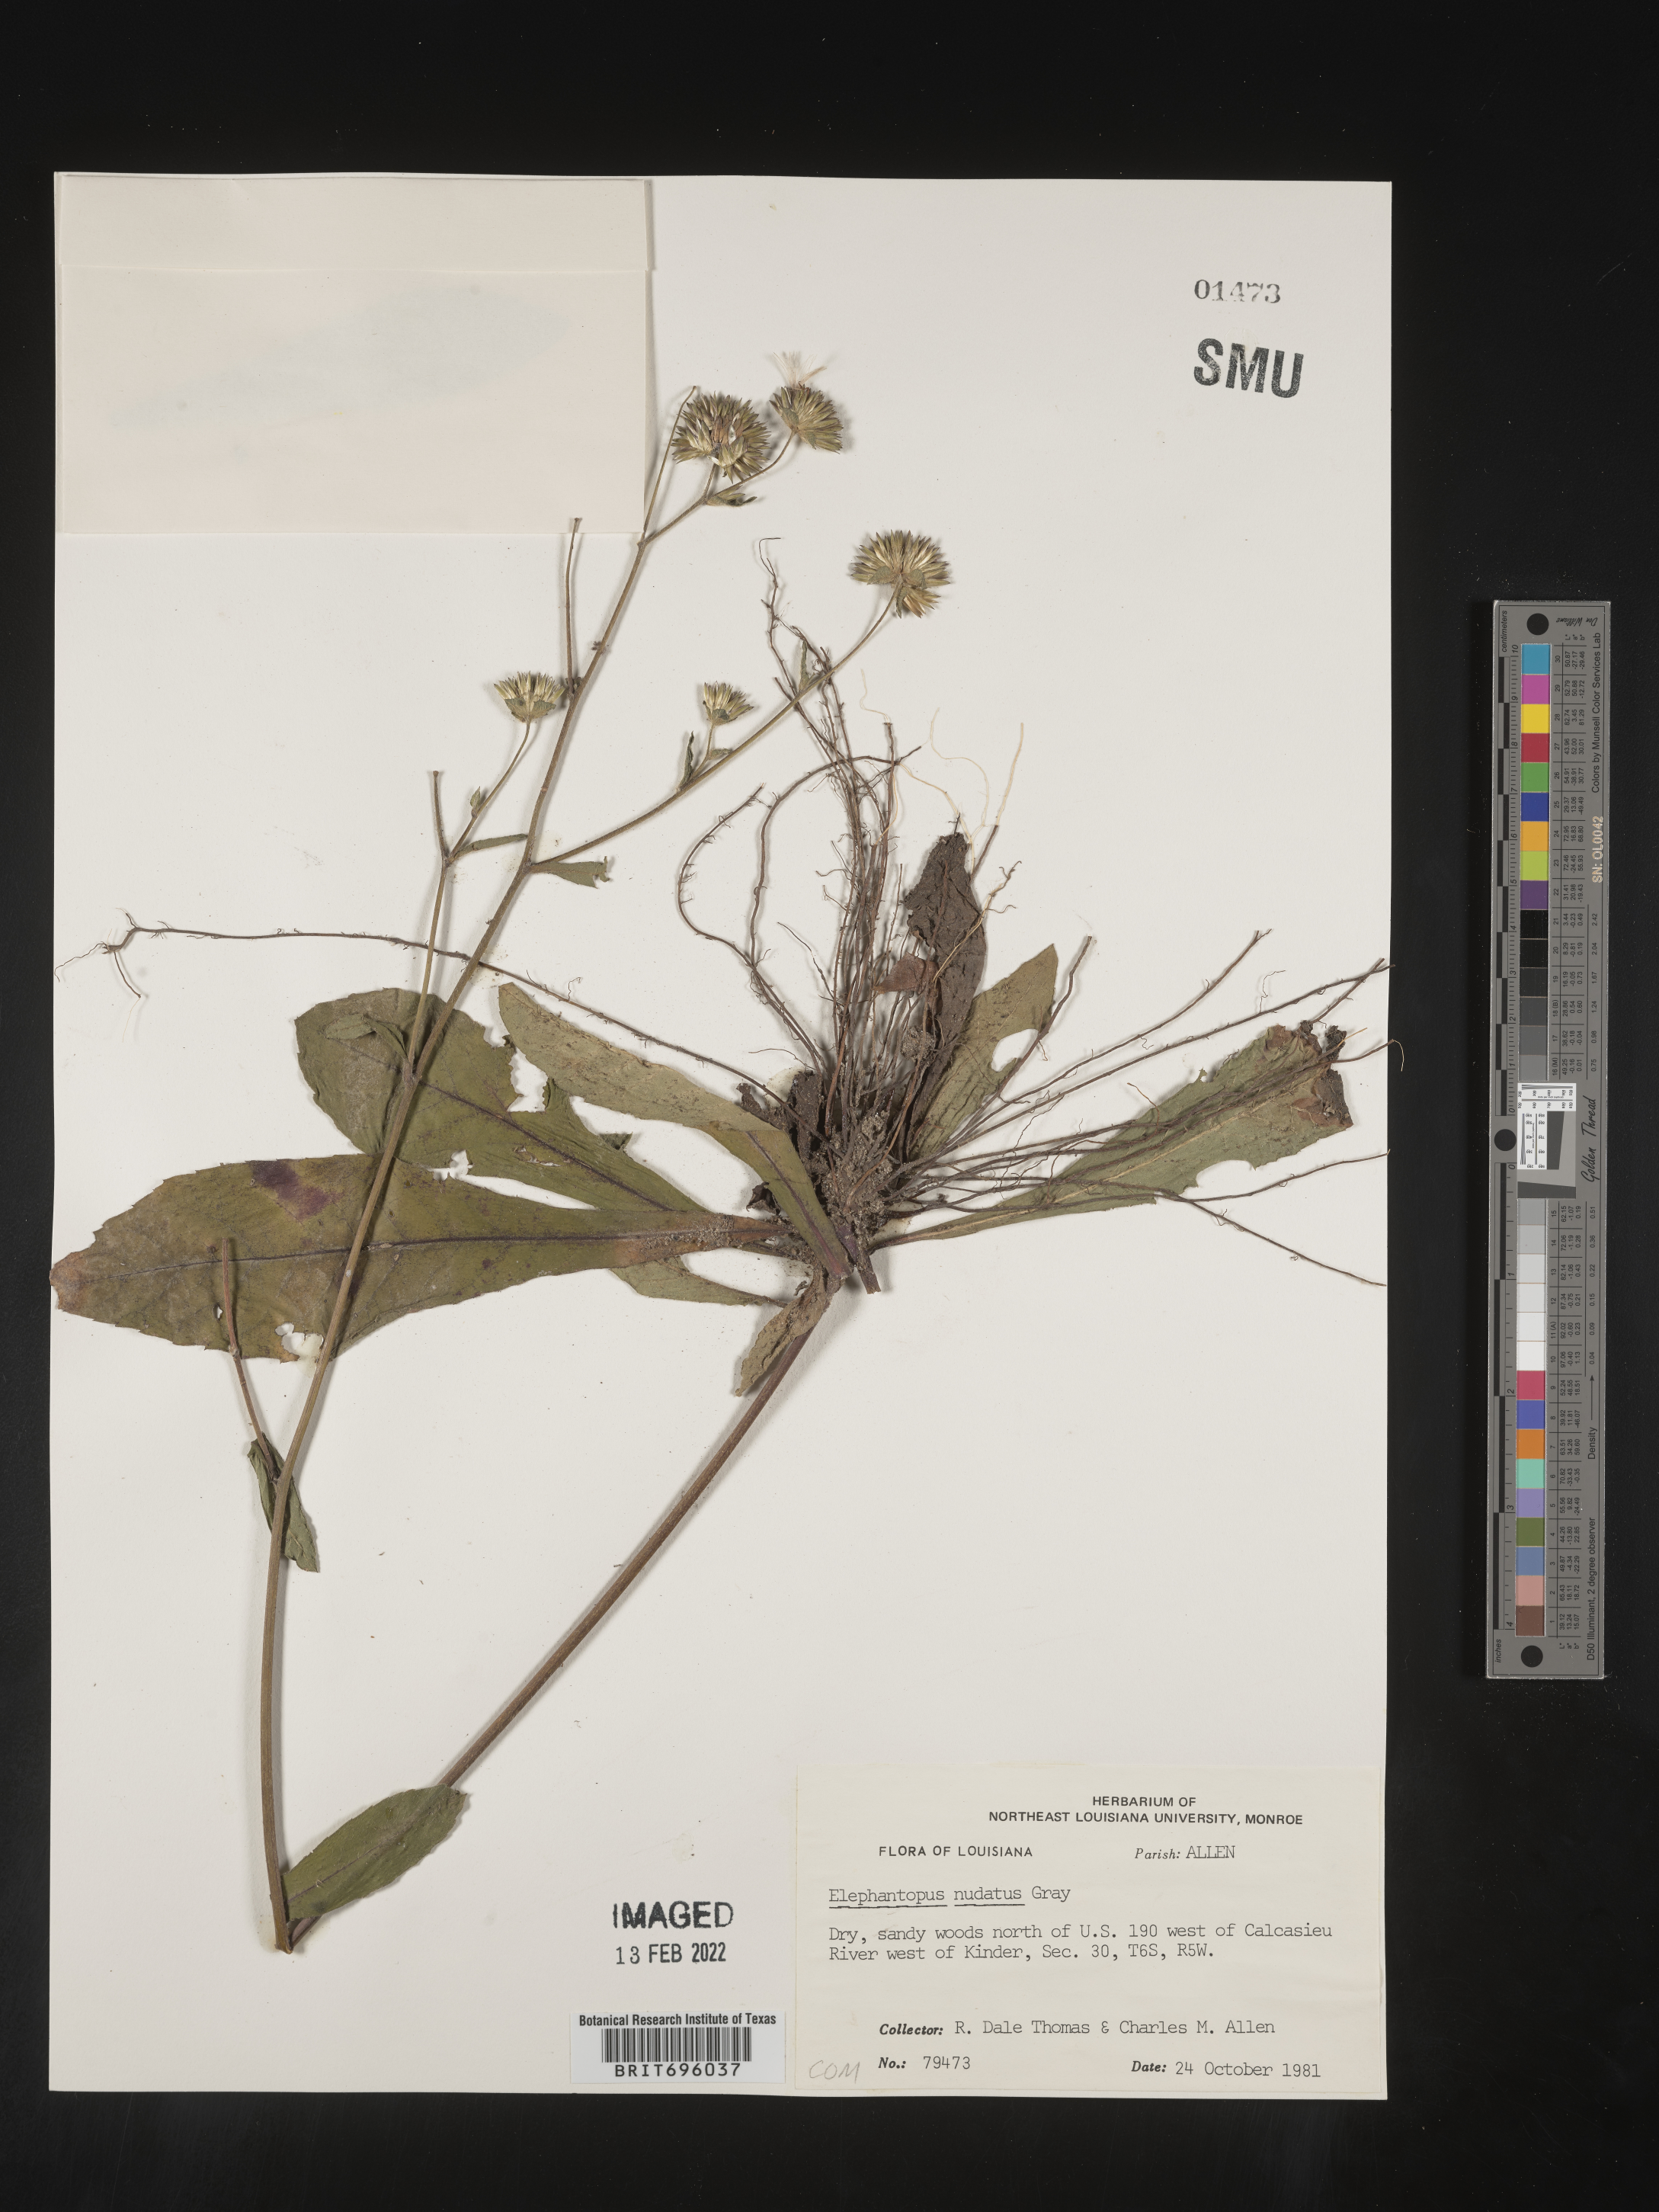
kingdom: Plantae
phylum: Tracheophyta
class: Magnoliopsida
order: Asterales
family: Asteraceae
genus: Elephantopus
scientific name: Elephantopus nudatus
